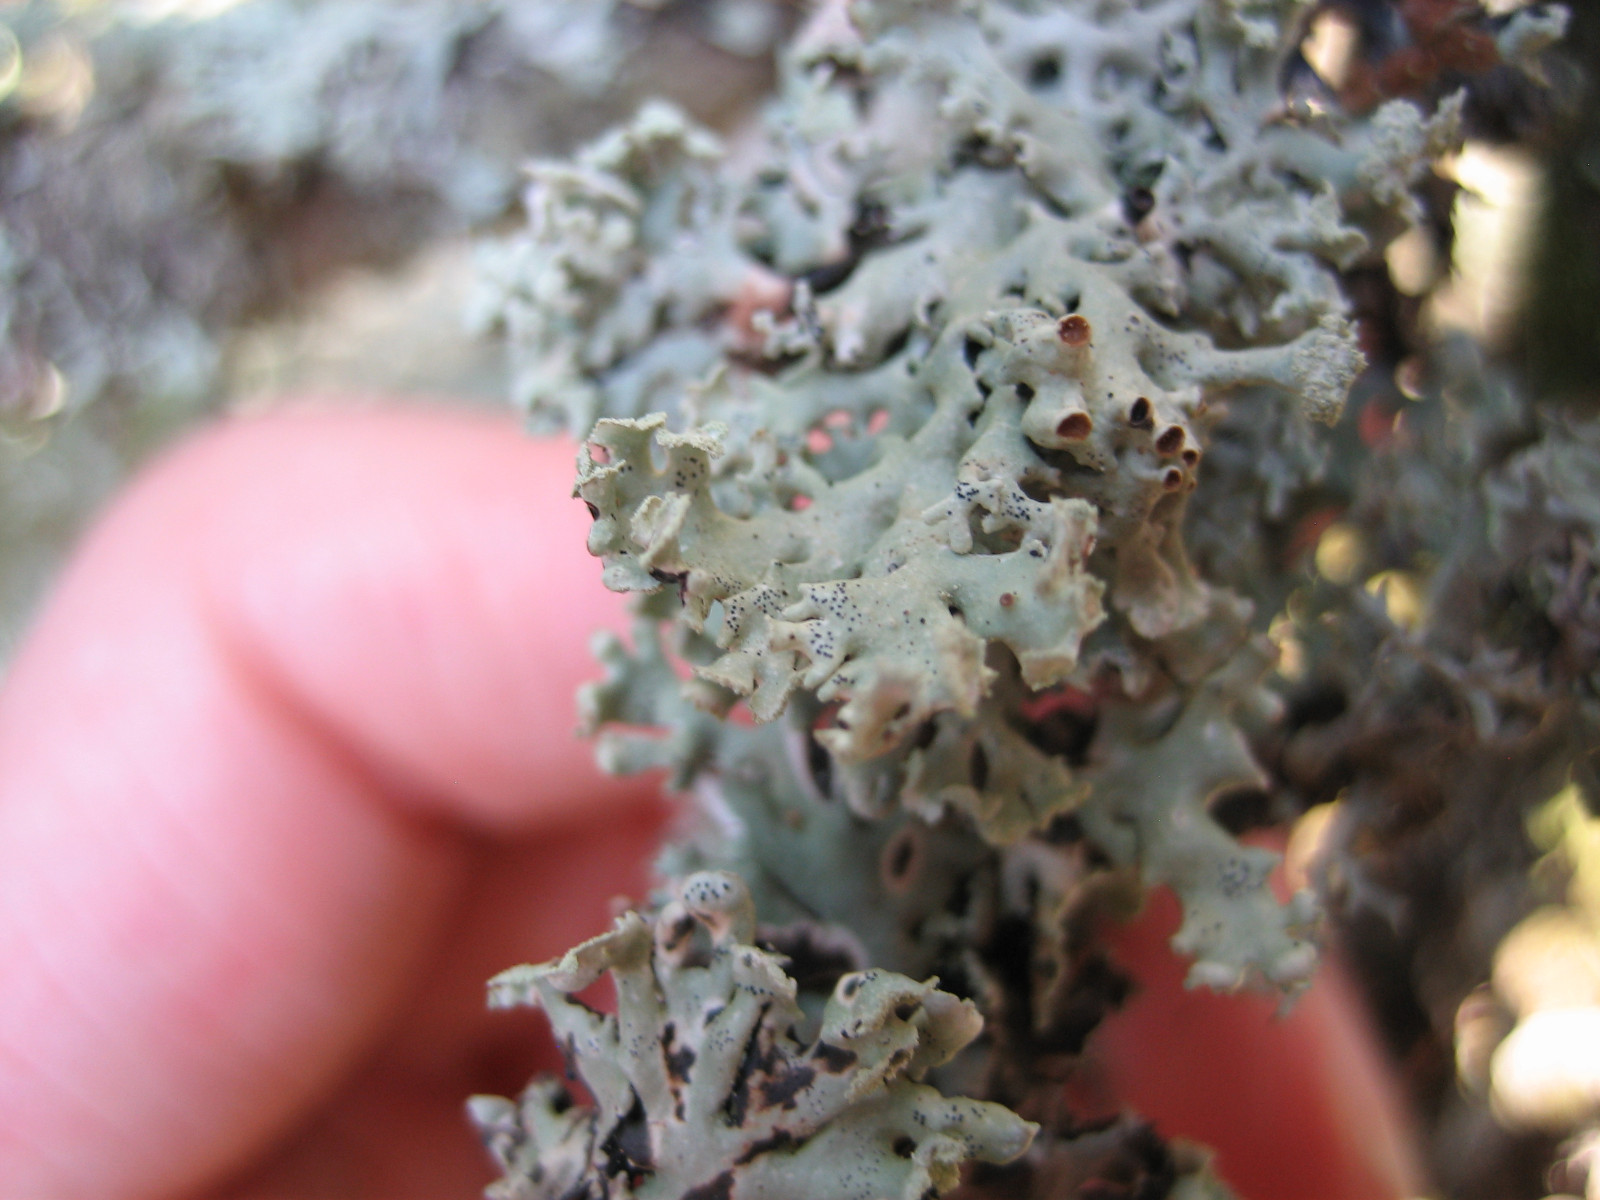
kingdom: Fungi
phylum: Ascomycota
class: Lecanoromycetes
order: Lecanorales
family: Parmeliaceae
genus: Hypogymnia
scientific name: Hypogymnia physodes
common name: almindelig kvistlav
